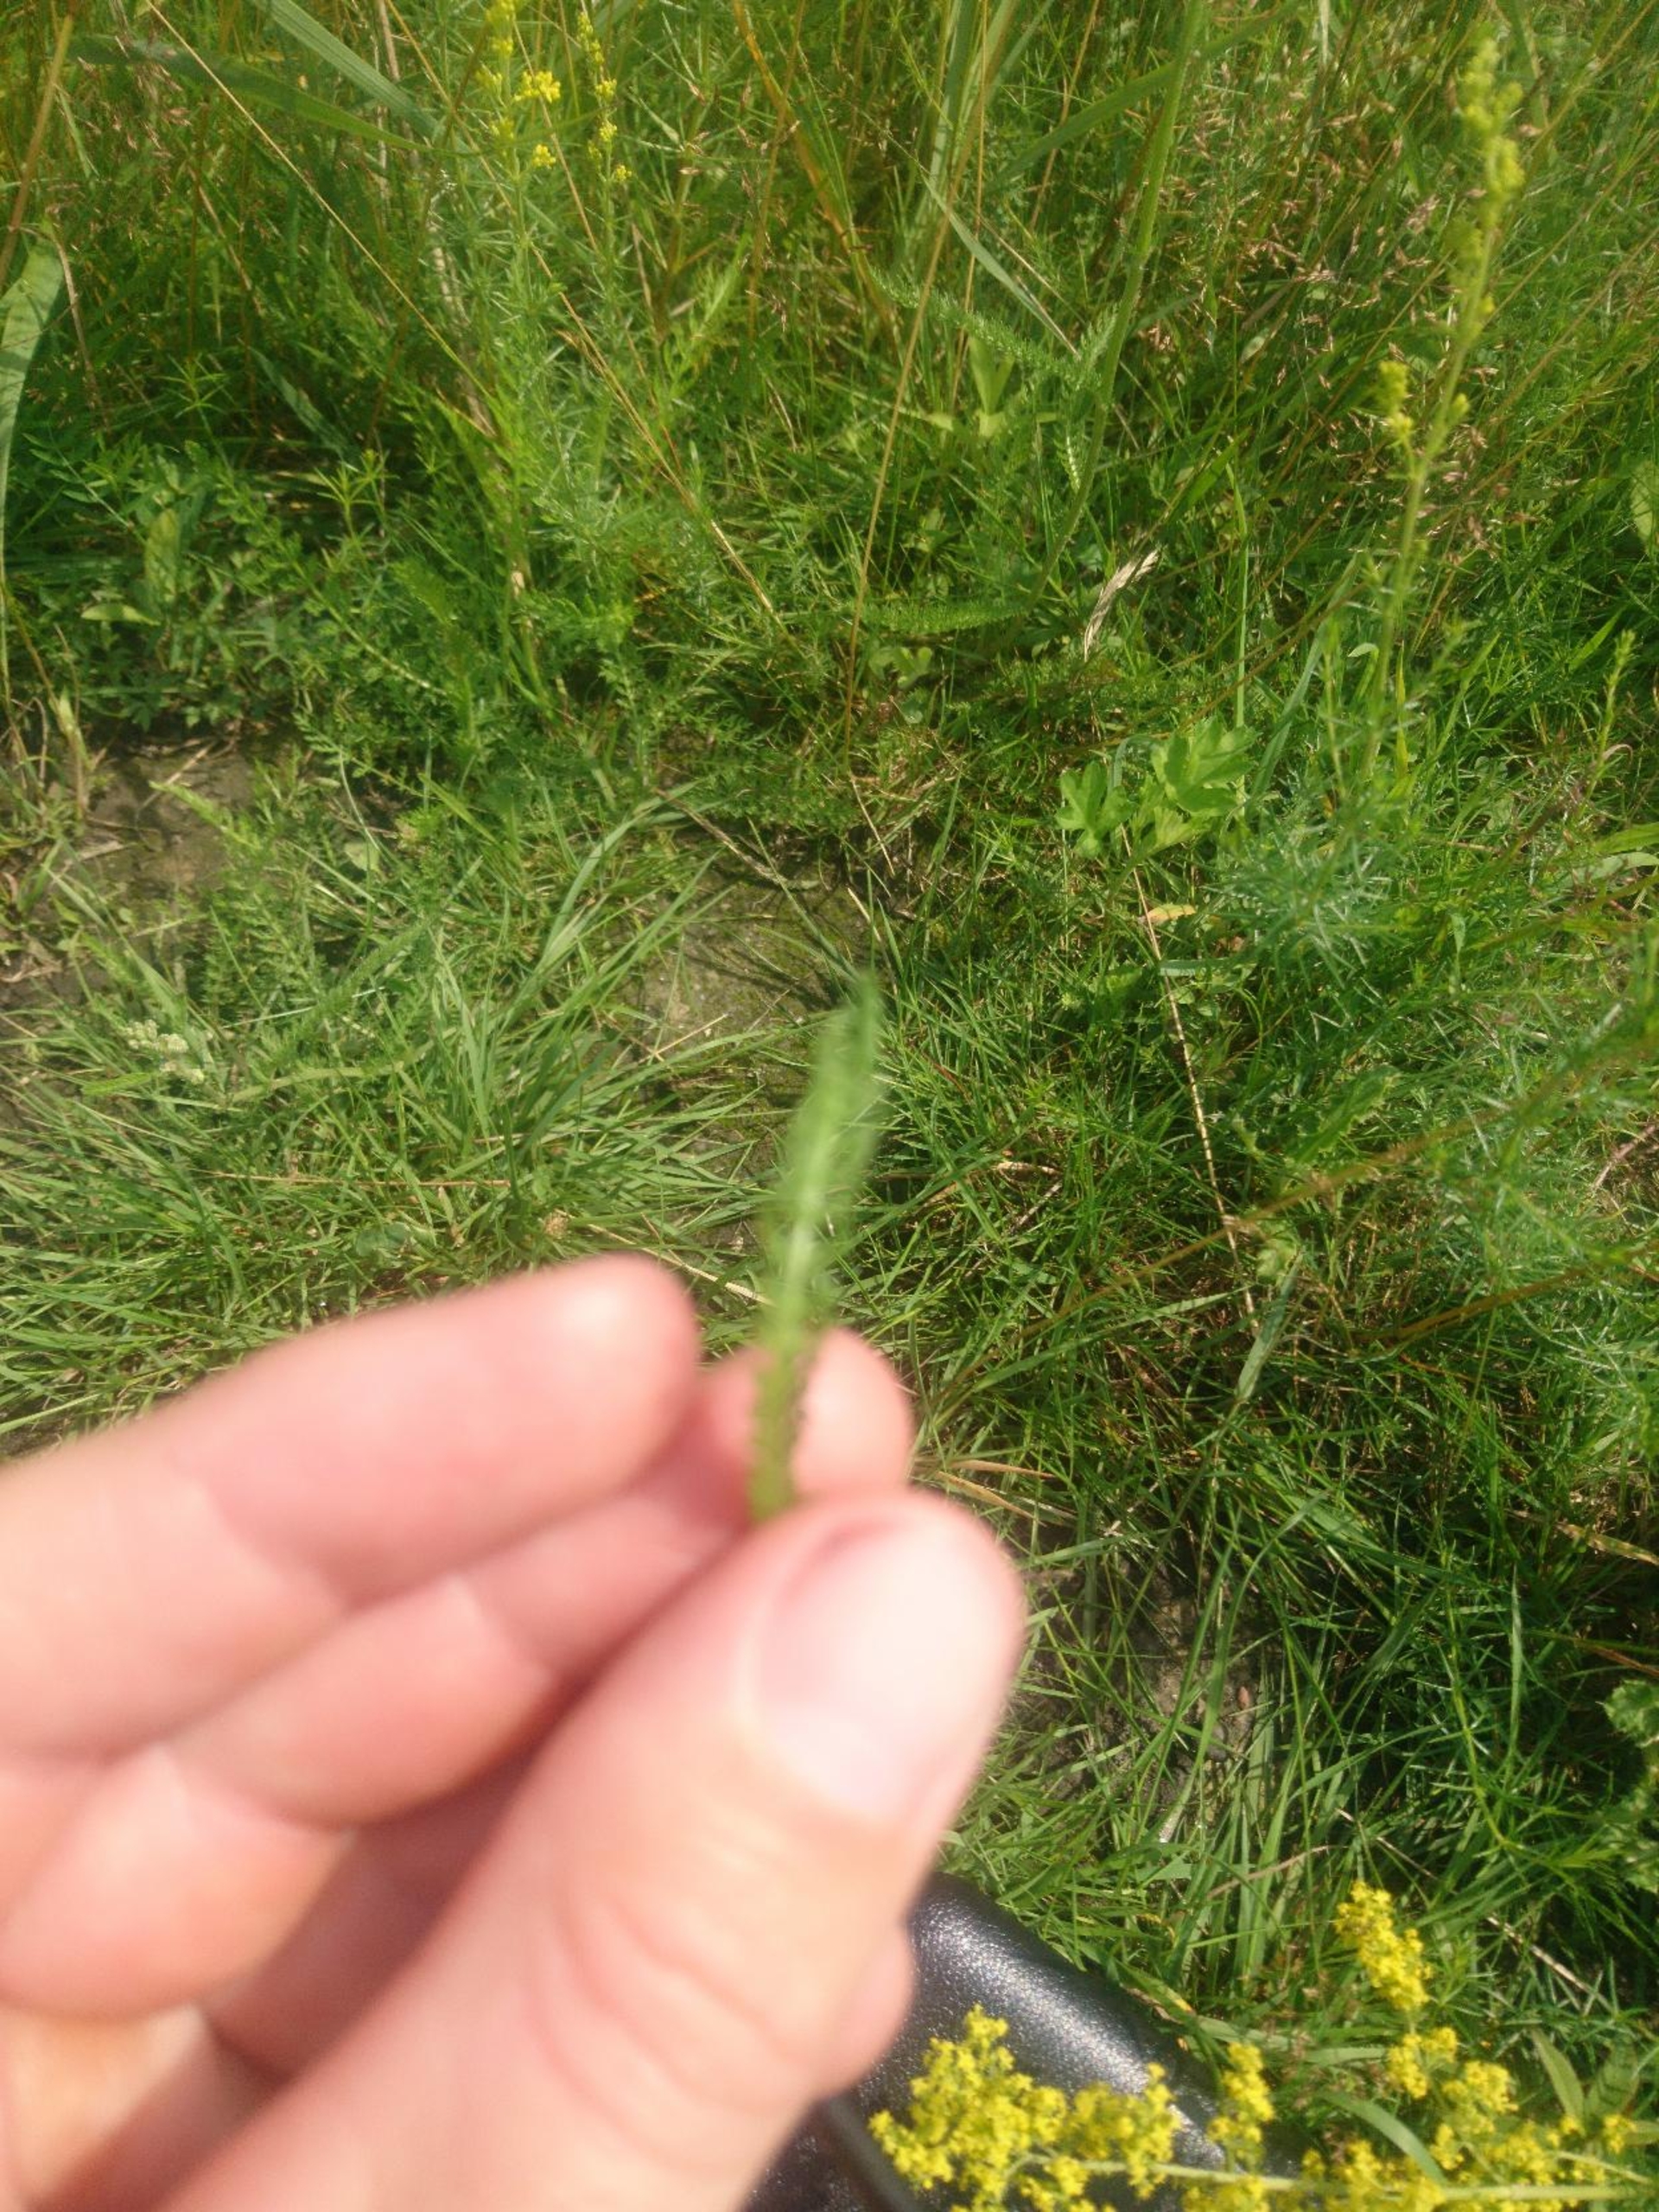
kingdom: Plantae
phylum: Tracheophyta
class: Magnoliopsida
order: Asterales
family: Asteraceae
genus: Achillea
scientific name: Achillea millefolium
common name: Almindelig røllike
